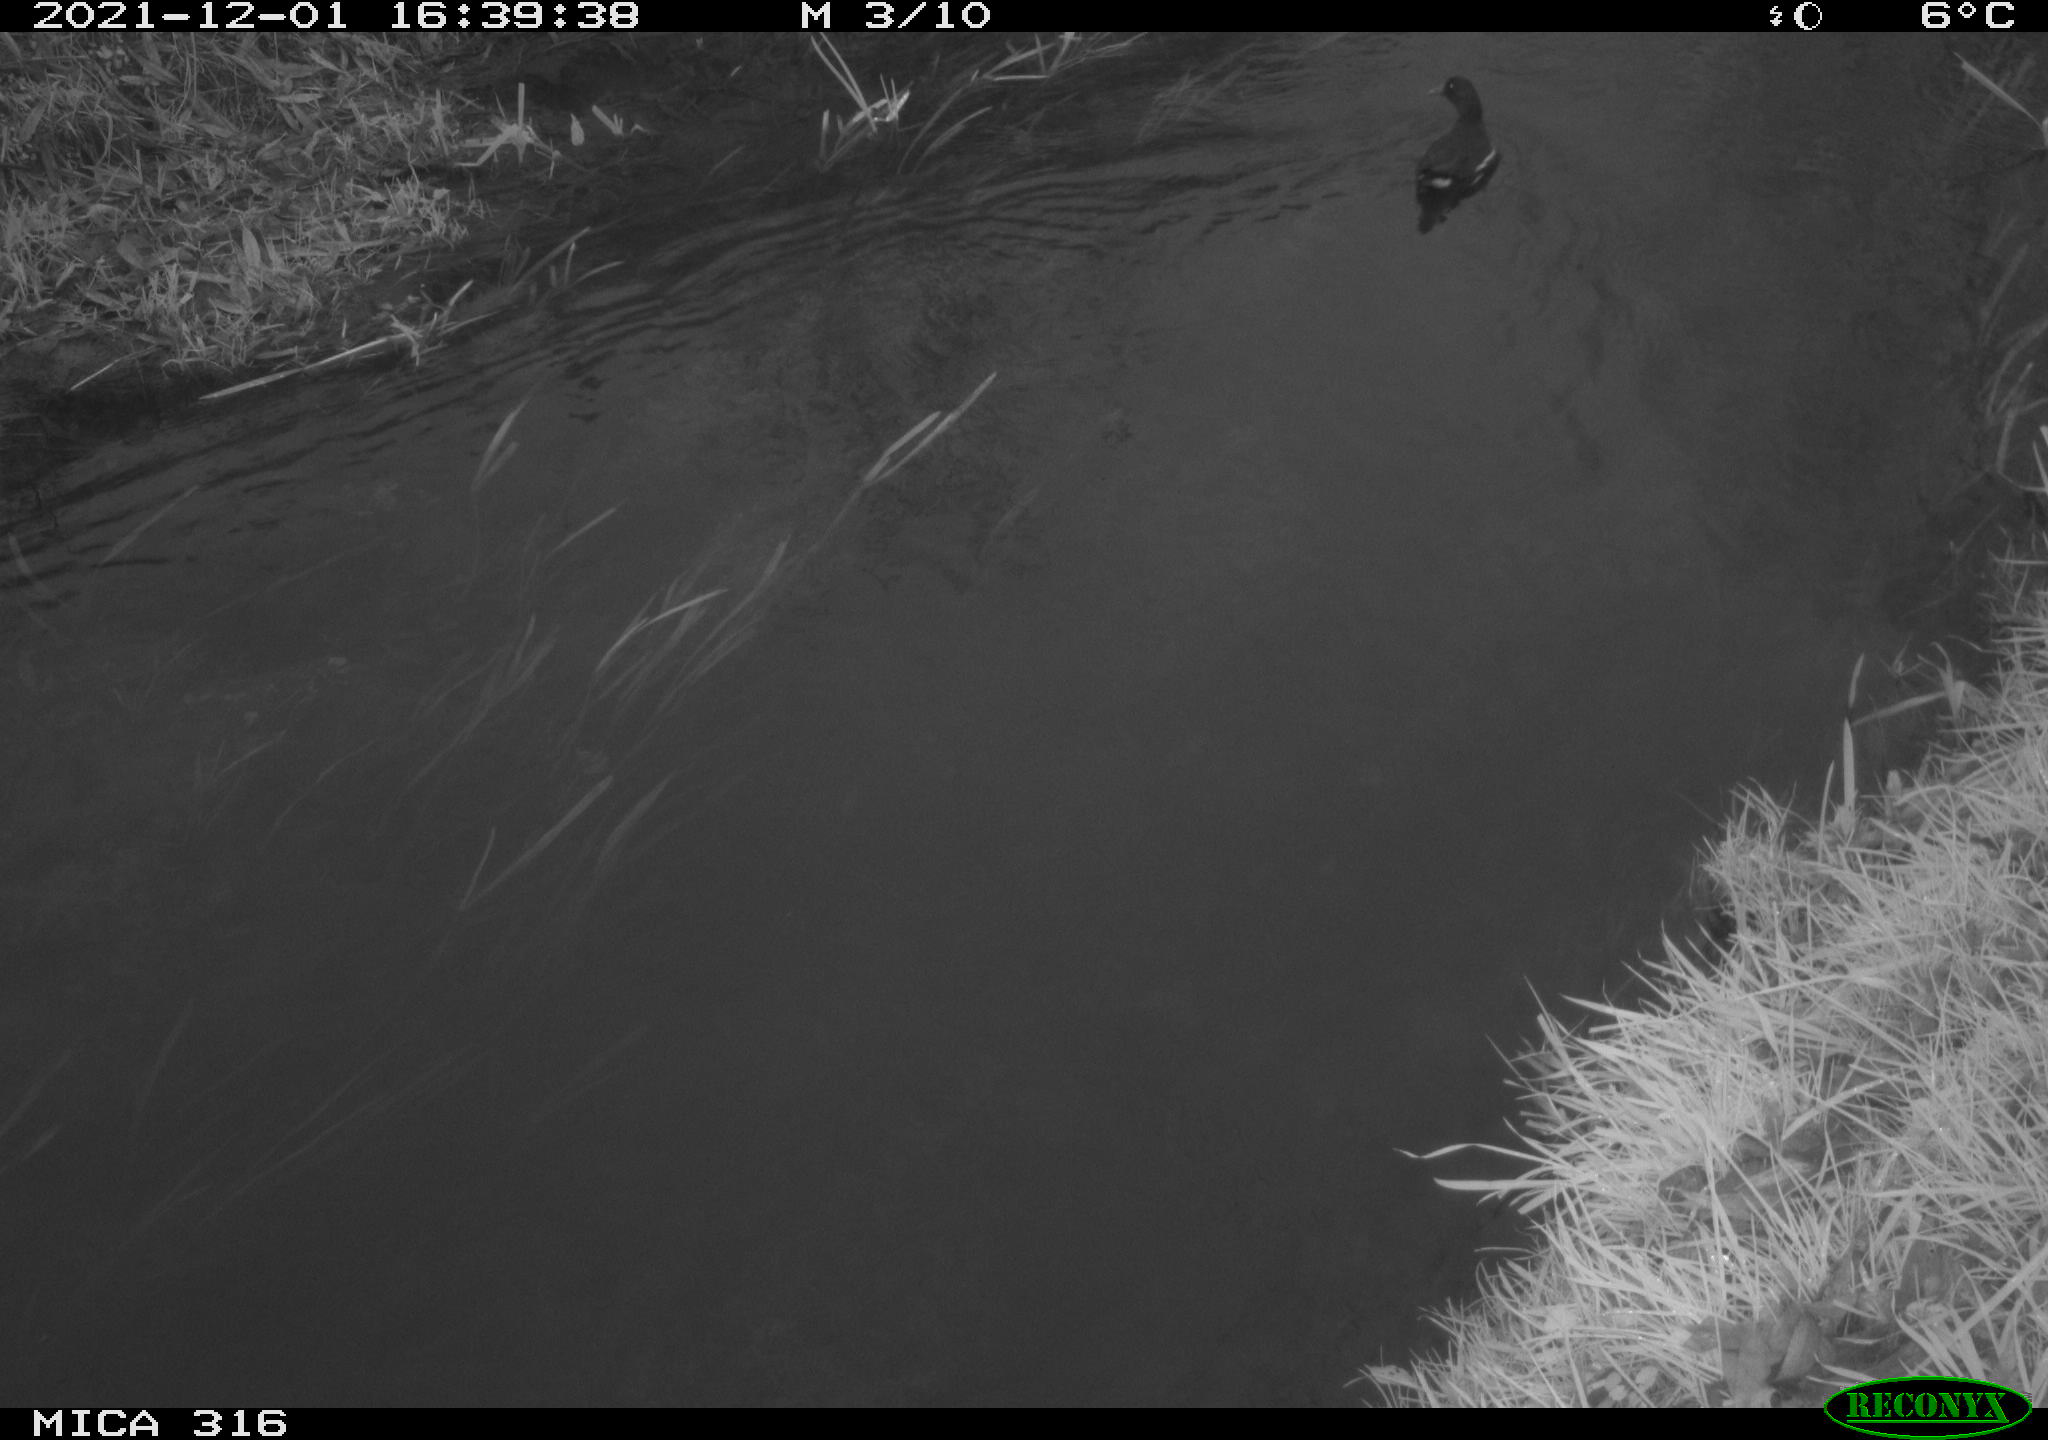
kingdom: Animalia
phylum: Chordata
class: Aves
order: Gruiformes
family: Rallidae
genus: Gallinula
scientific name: Gallinula chloropus
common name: Common moorhen
